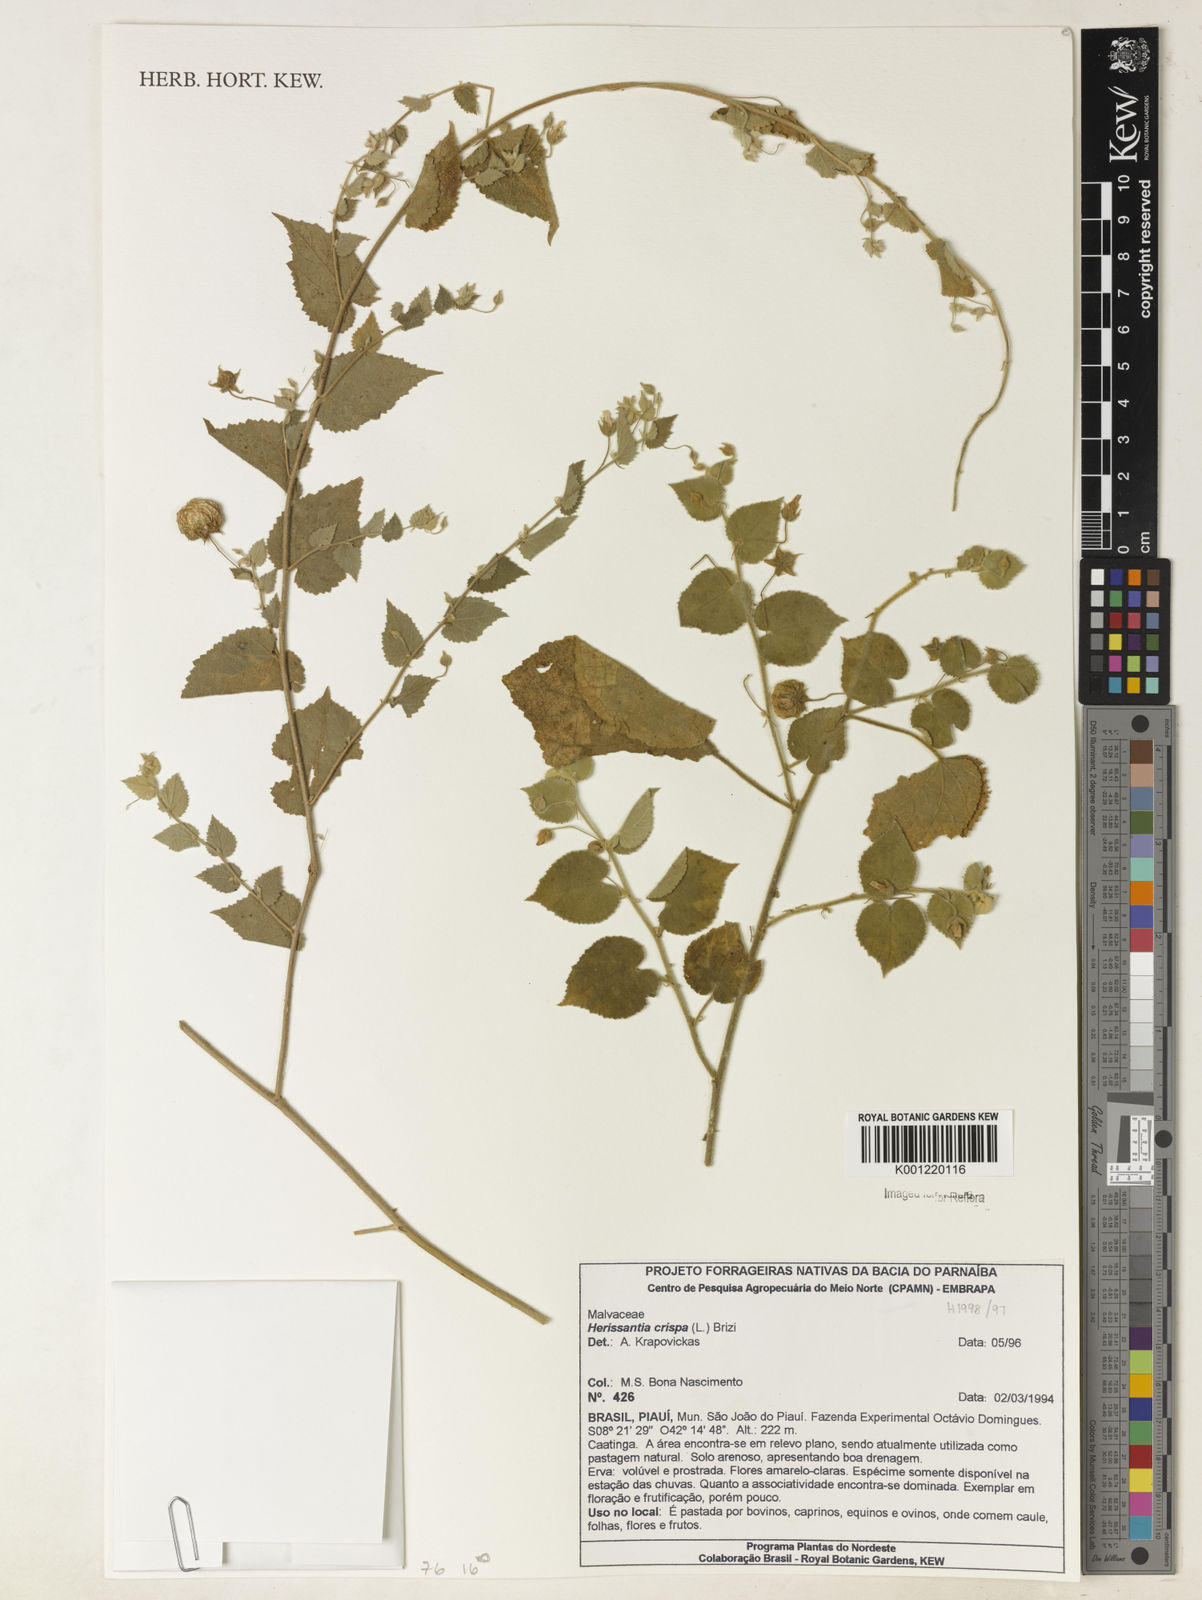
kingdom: Plantae
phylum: Tracheophyta
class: Magnoliopsida
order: Malvales
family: Malvaceae
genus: Herissantia
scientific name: Herissantia crispa
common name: Bladdermallow
